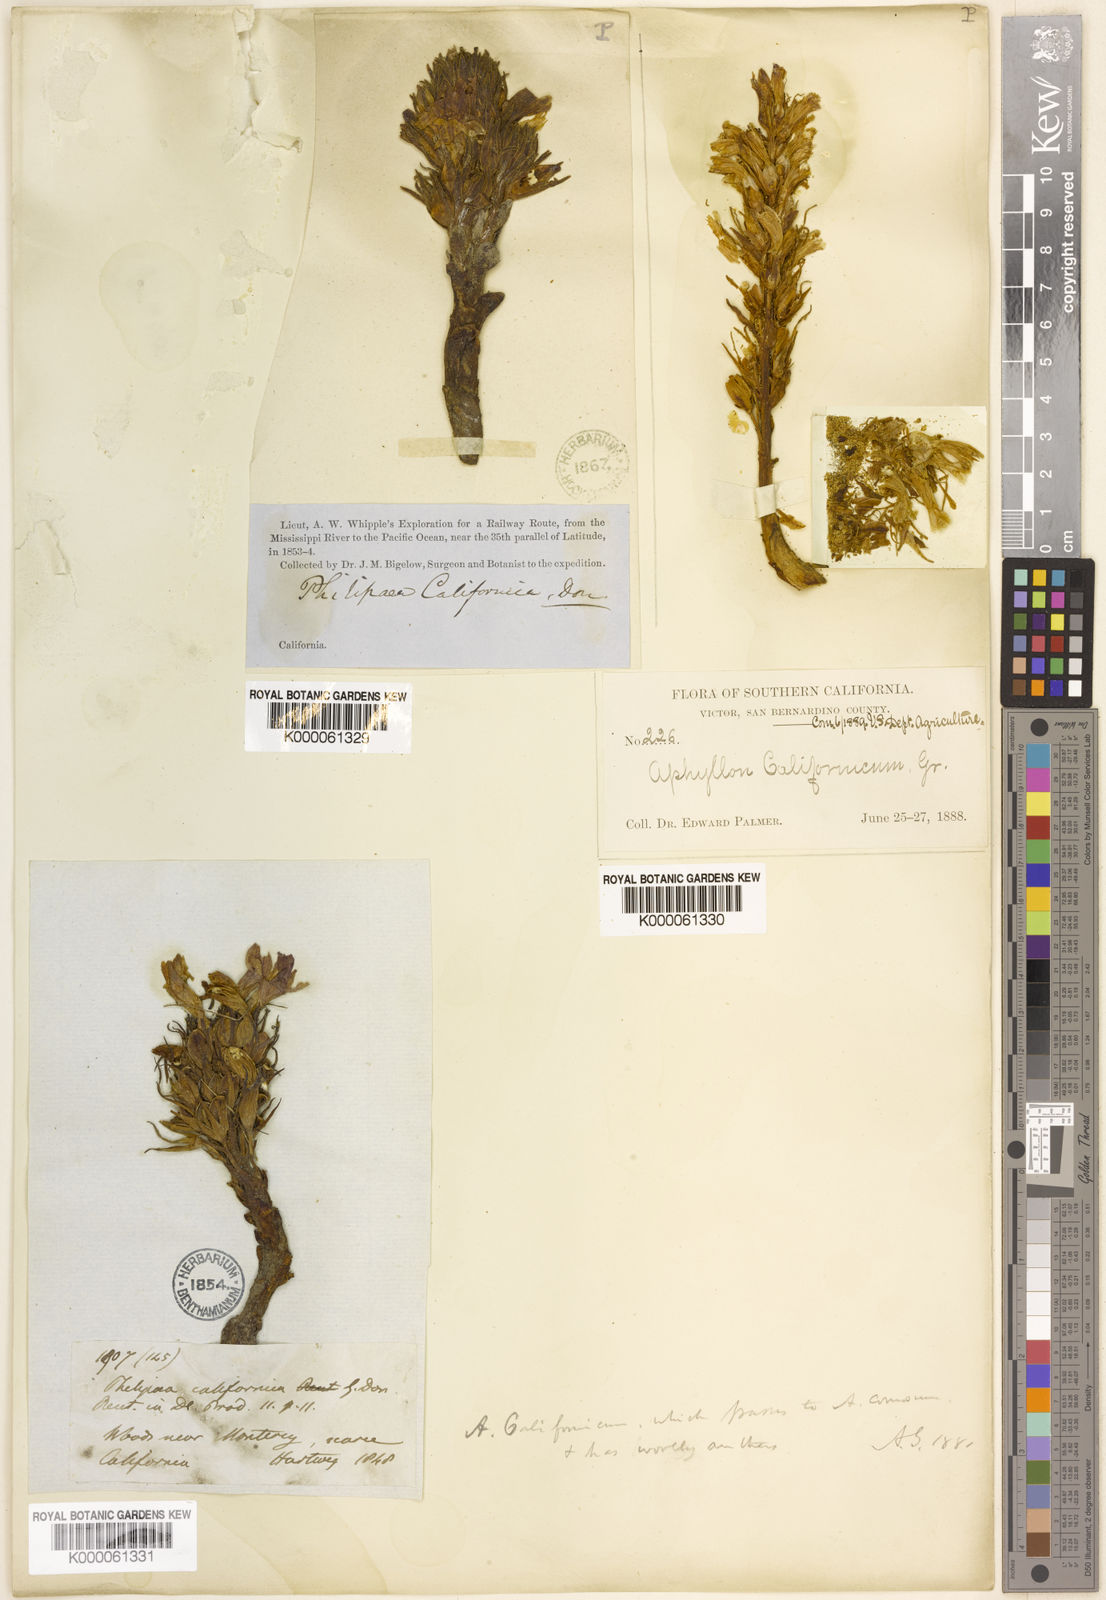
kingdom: Plantae
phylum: Tracheophyta
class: Magnoliopsida
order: Lamiales
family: Orobanchaceae
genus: Aphyllon
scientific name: Aphyllon californicum
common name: California broomrape
